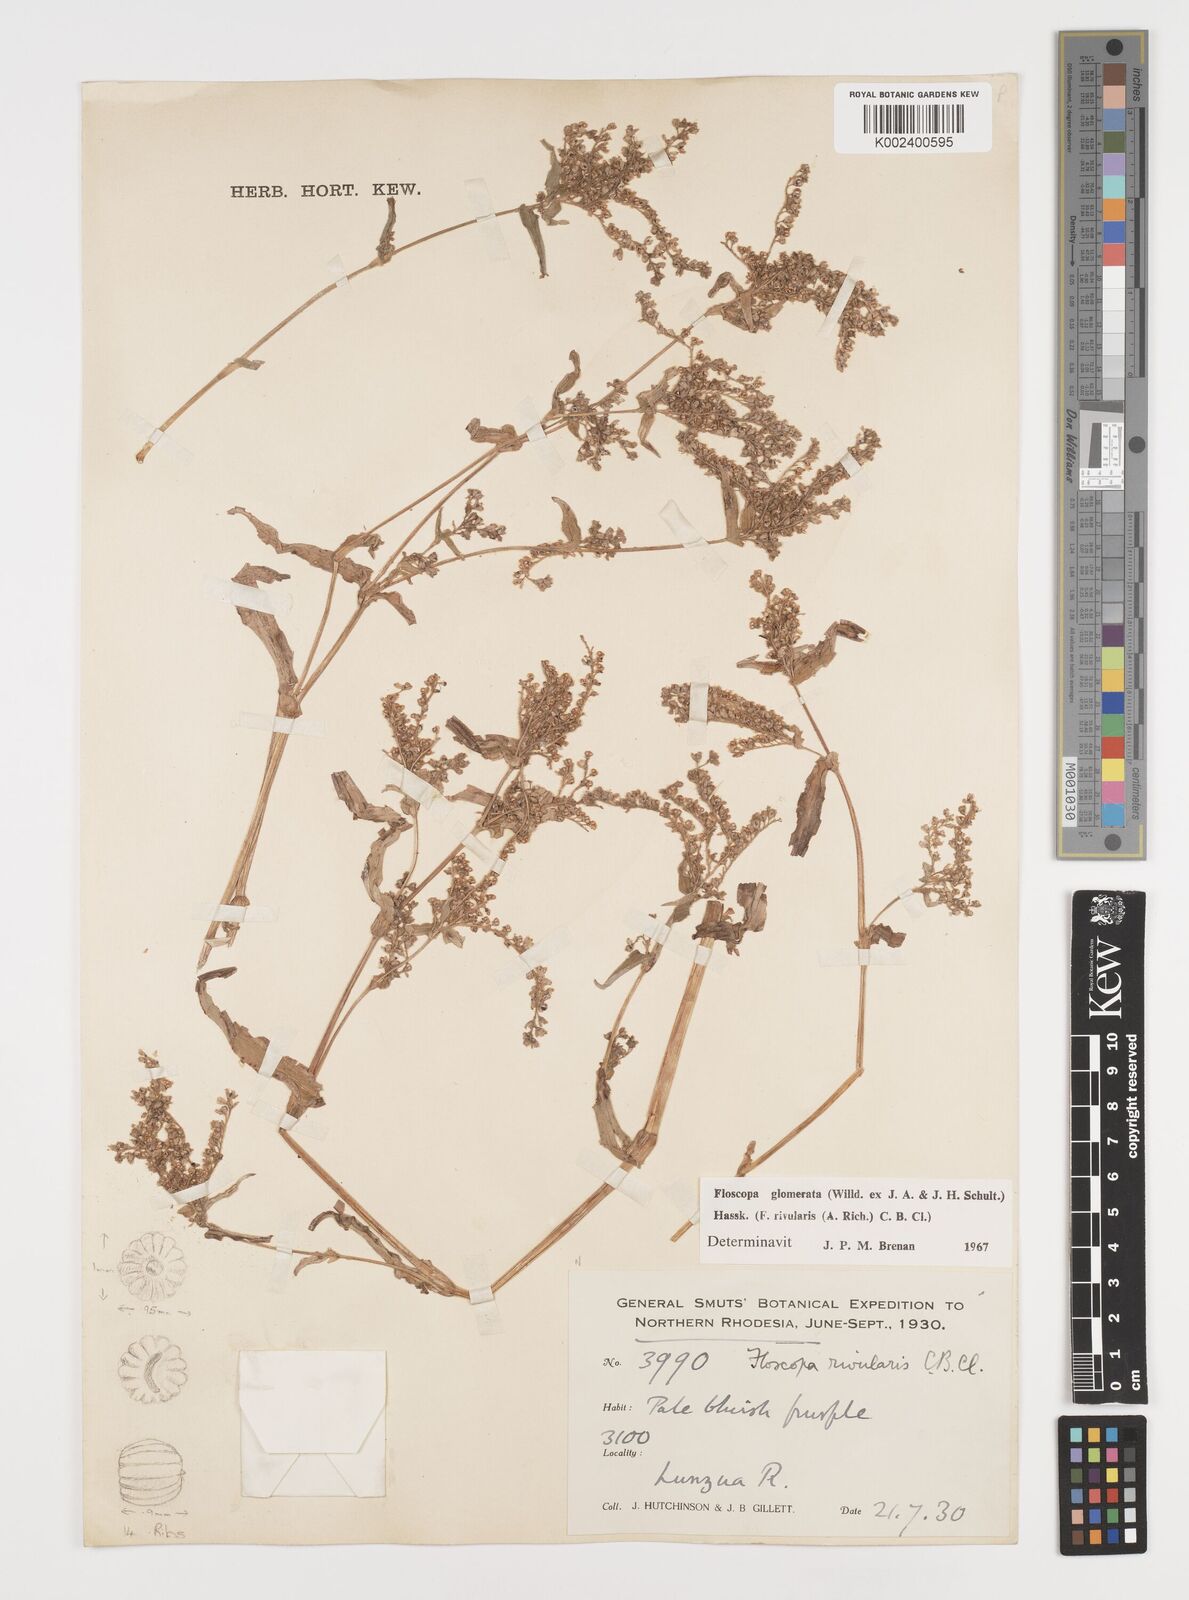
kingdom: Plantae
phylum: Tracheophyta
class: Liliopsida
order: Commelinales
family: Commelinaceae
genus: Floscopa
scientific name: Floscopa glomerata
